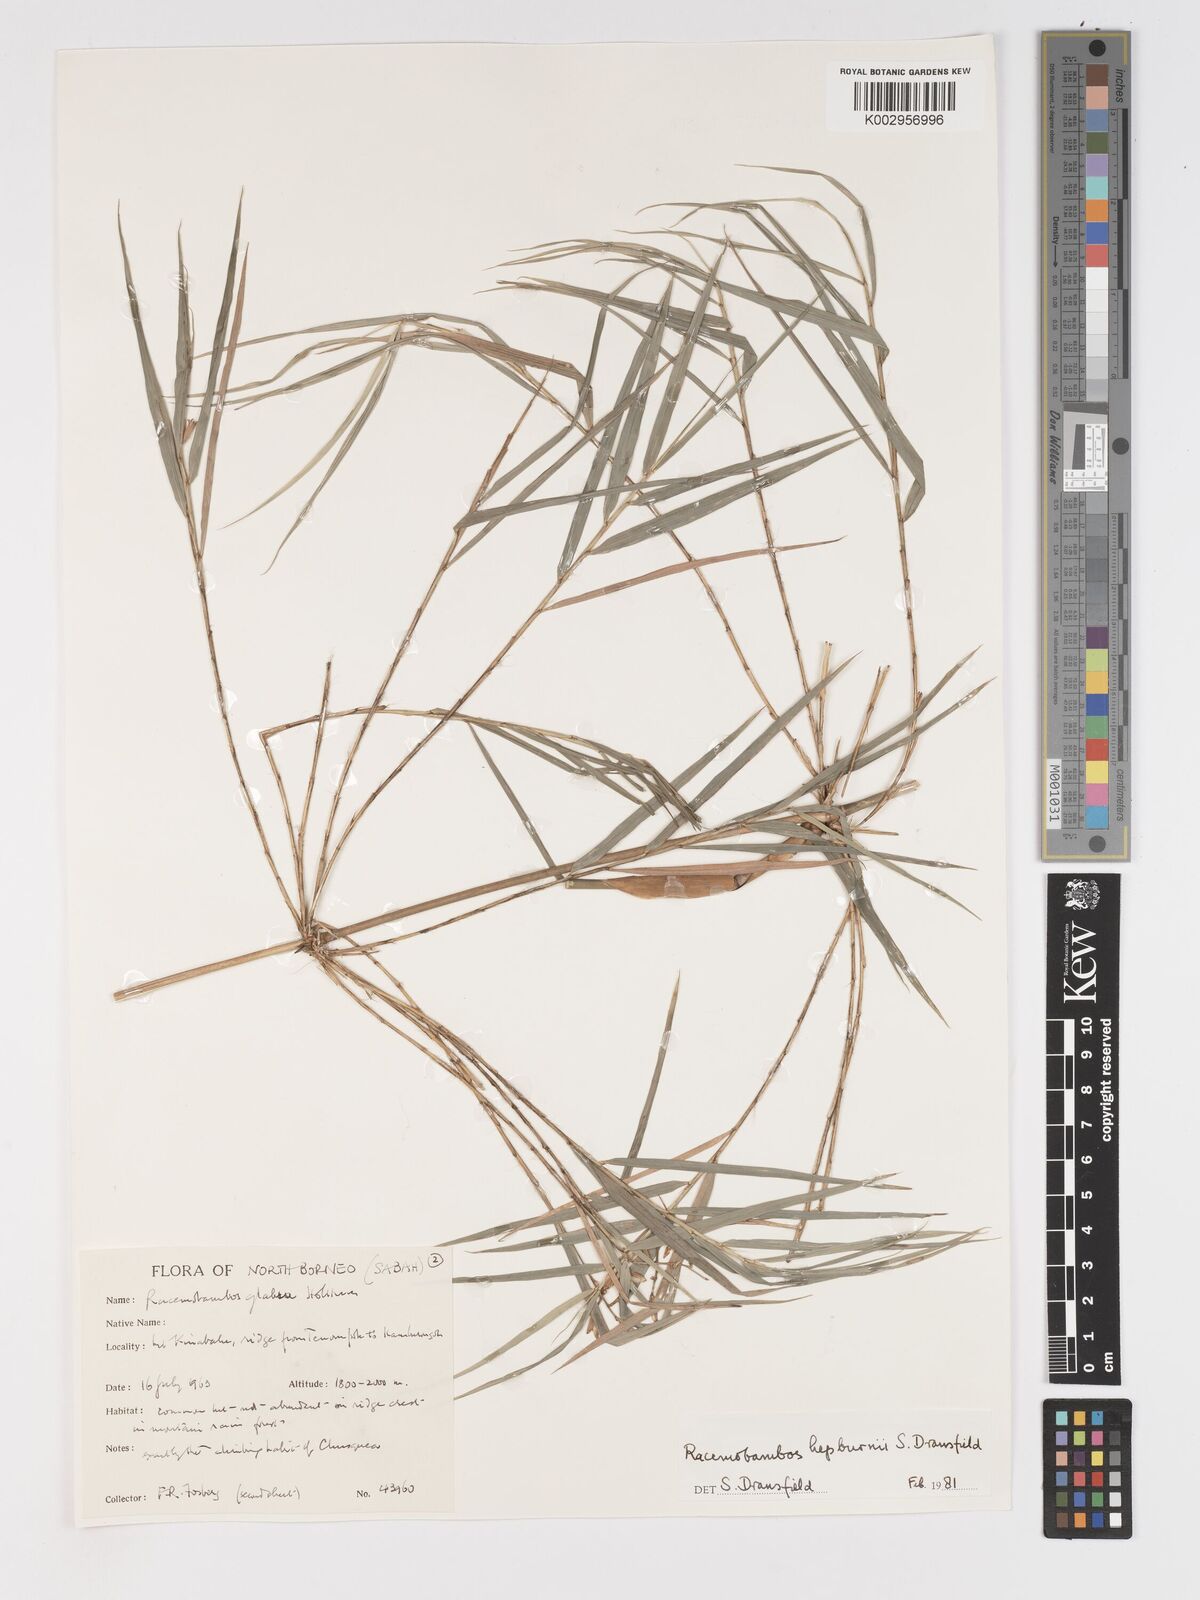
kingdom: Plantae
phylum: Tracheophyta
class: Liliopsida
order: Poales
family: Poaceae
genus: Racemobambos
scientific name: Racemobambos
